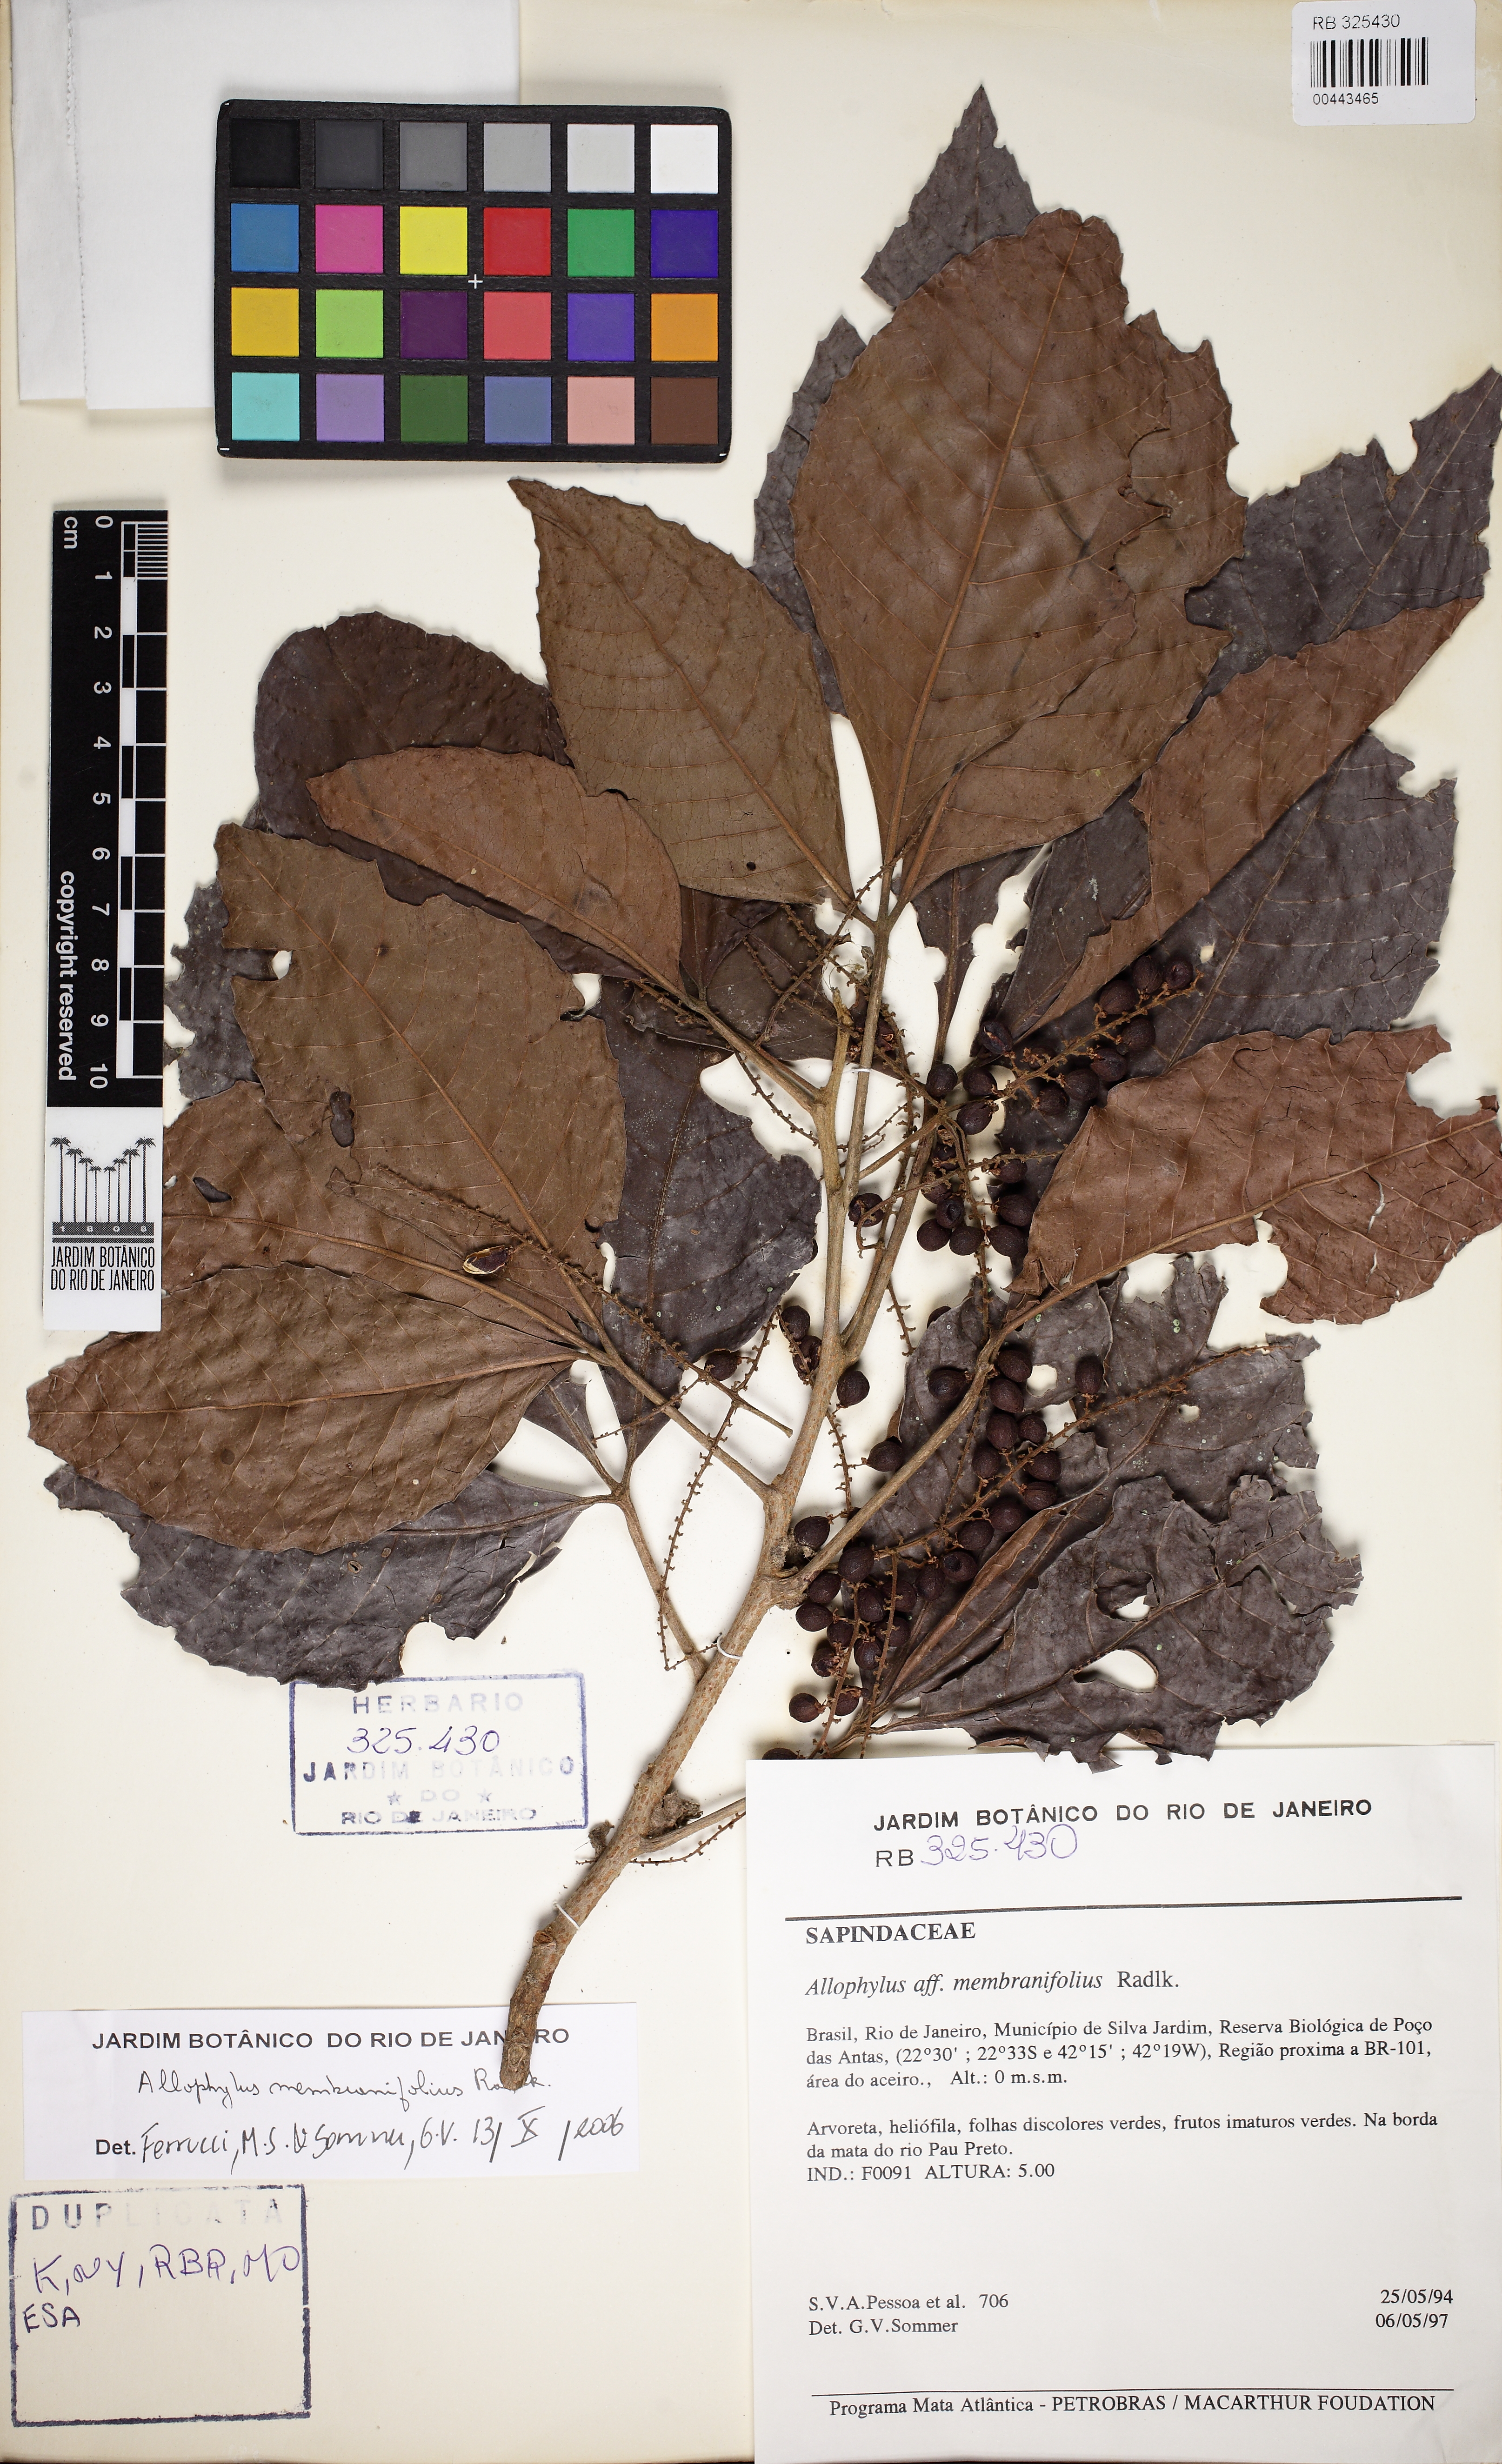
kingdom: Plantae
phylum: Tracheophyta
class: Magnoliopsida
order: Sapindales
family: Sapindaceae
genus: Allophylus
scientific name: Allophylus petiolulatus
